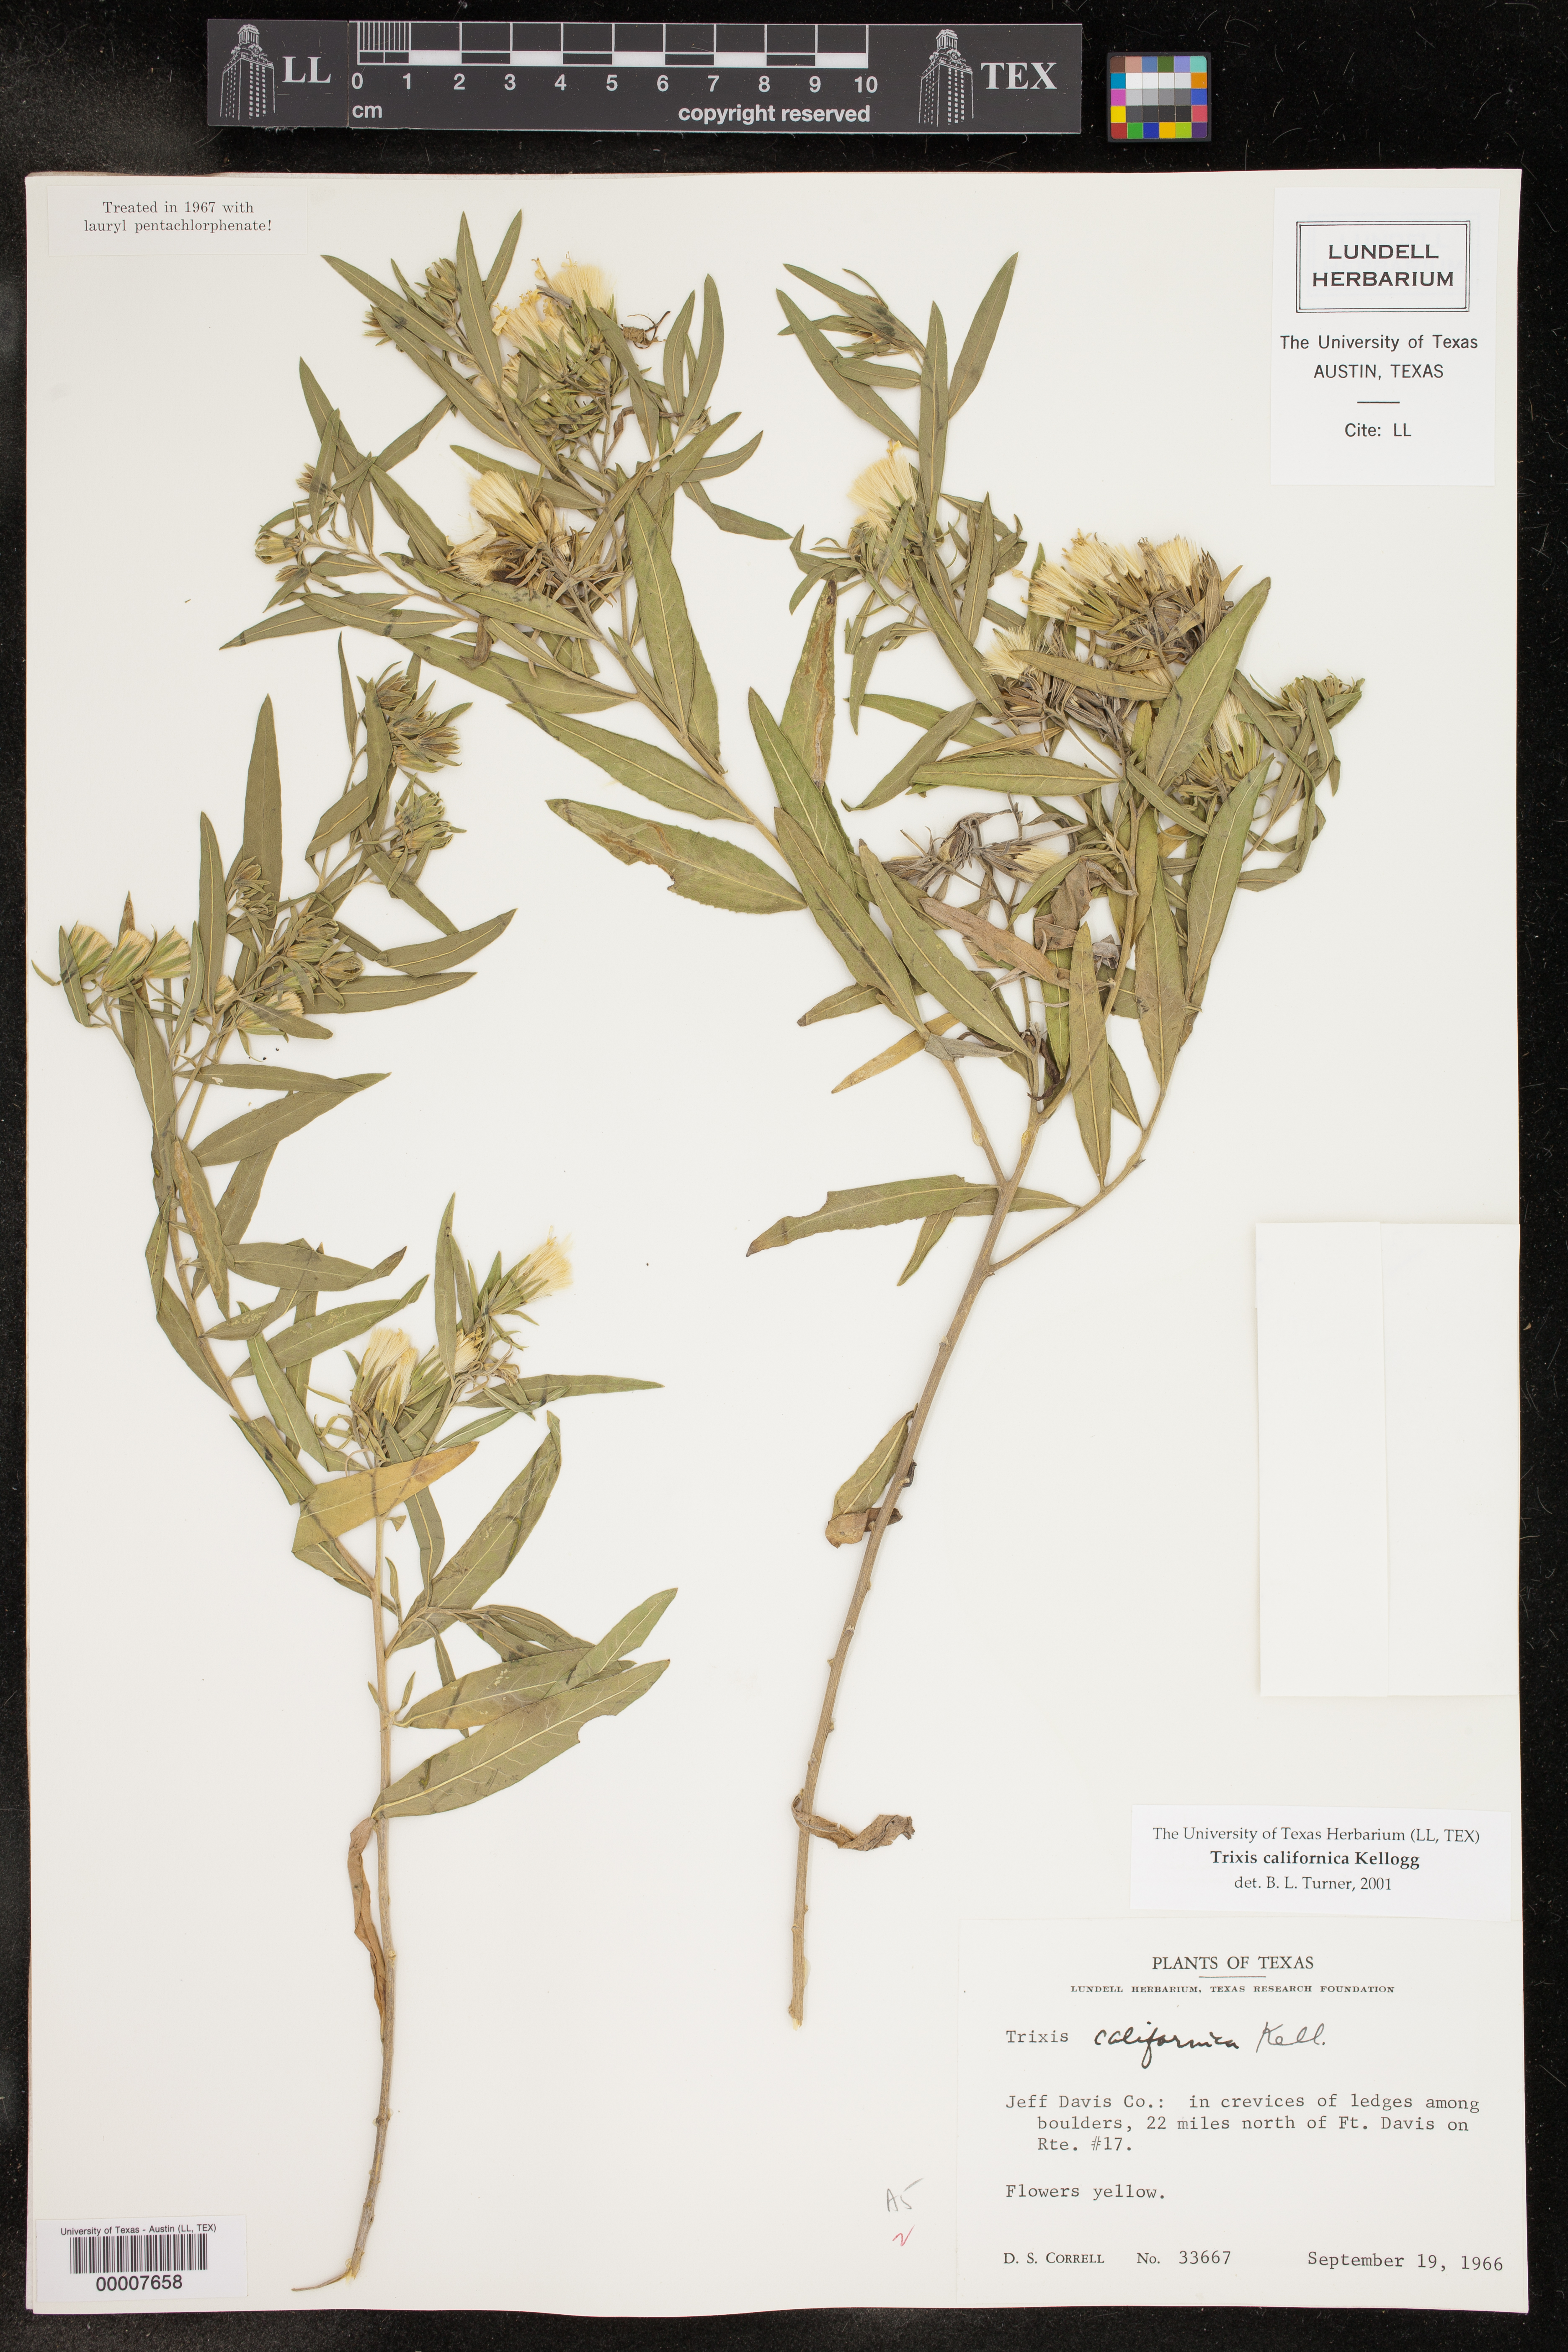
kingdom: Plantae
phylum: Tracheophyta
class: Magnoliopsida
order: Asterales
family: Asteraceae
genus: Trixis
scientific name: Trixis californica
